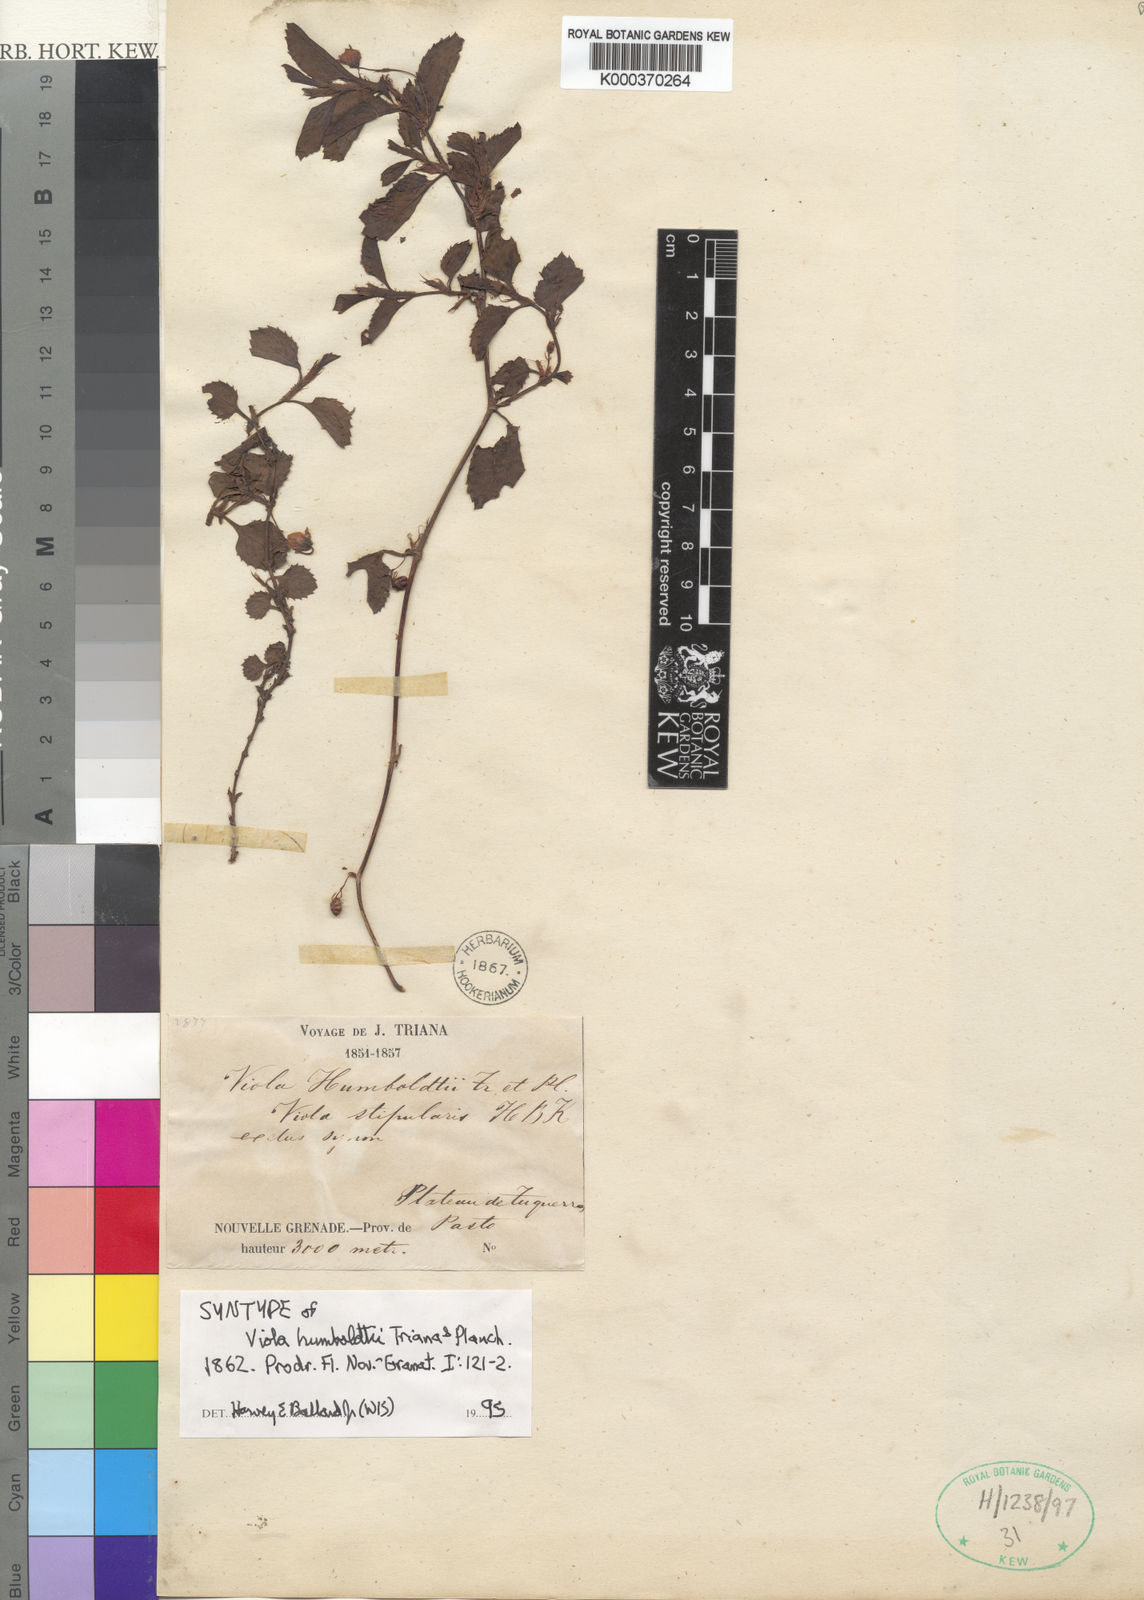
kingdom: Plantae
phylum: Tracheophyta
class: Magnoliopsida
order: Malpighiales
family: Violaceae
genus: Viola
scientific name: Viola dombeyana
